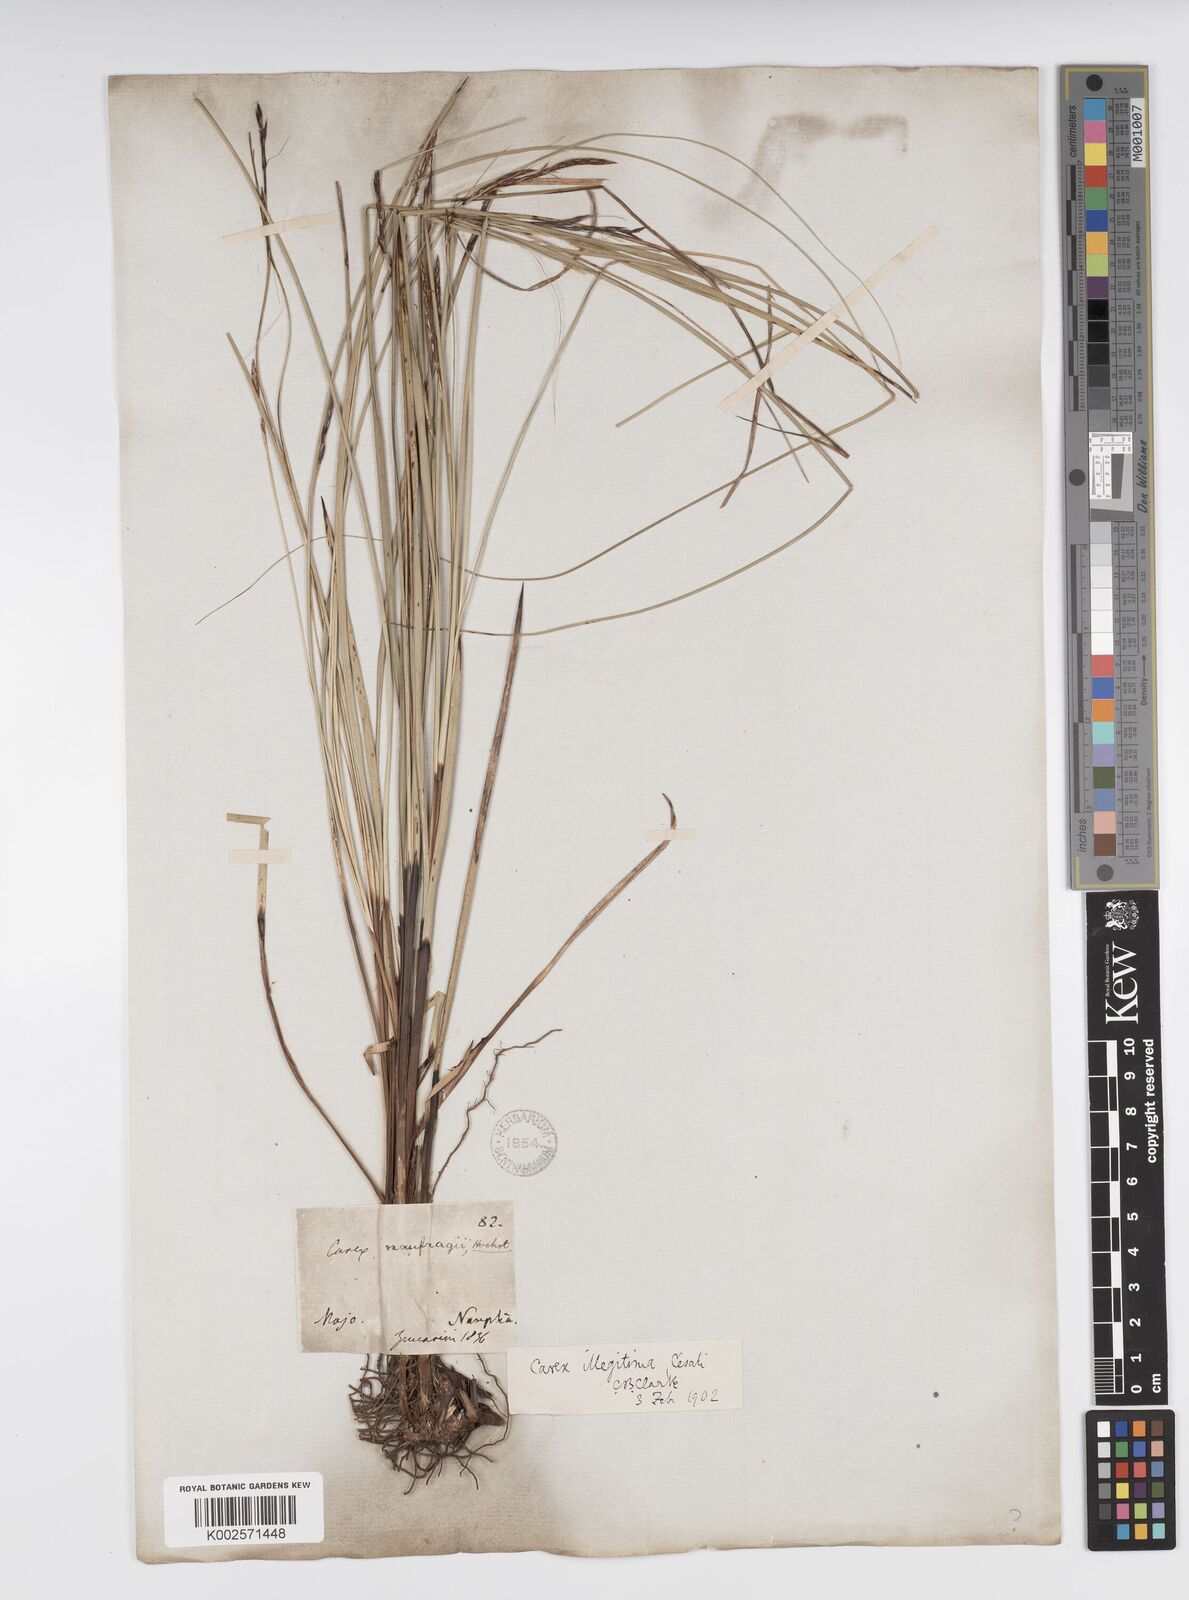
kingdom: Plantae
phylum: Tracheophyta
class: Liliopsida
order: Poales
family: Cyperaceae
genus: Carex
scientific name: Carex illegitima
